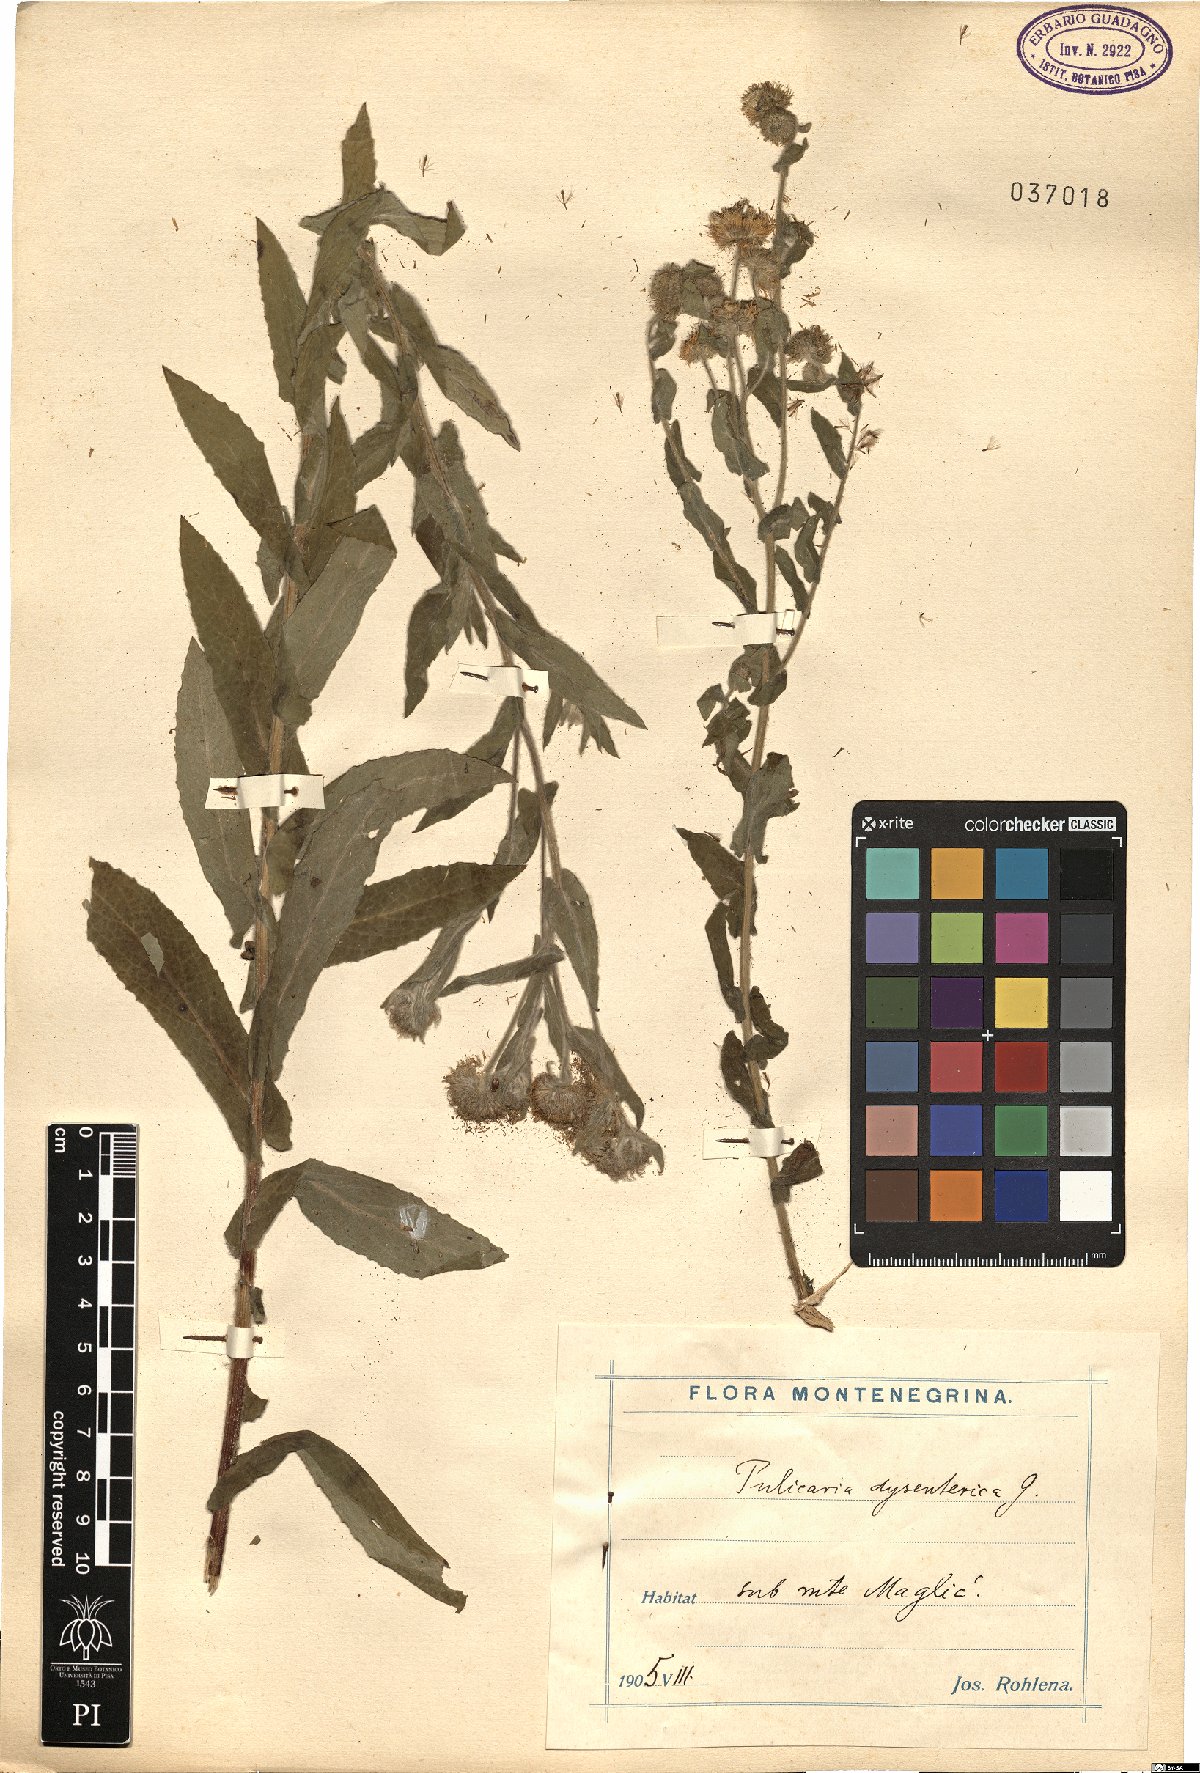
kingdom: Plantae
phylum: Tracheophyta
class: Magnoliopsida
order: Asterales
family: Asteraceae
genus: Pulicaria
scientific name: Pulicaria dysenterica
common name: Common fleabane
